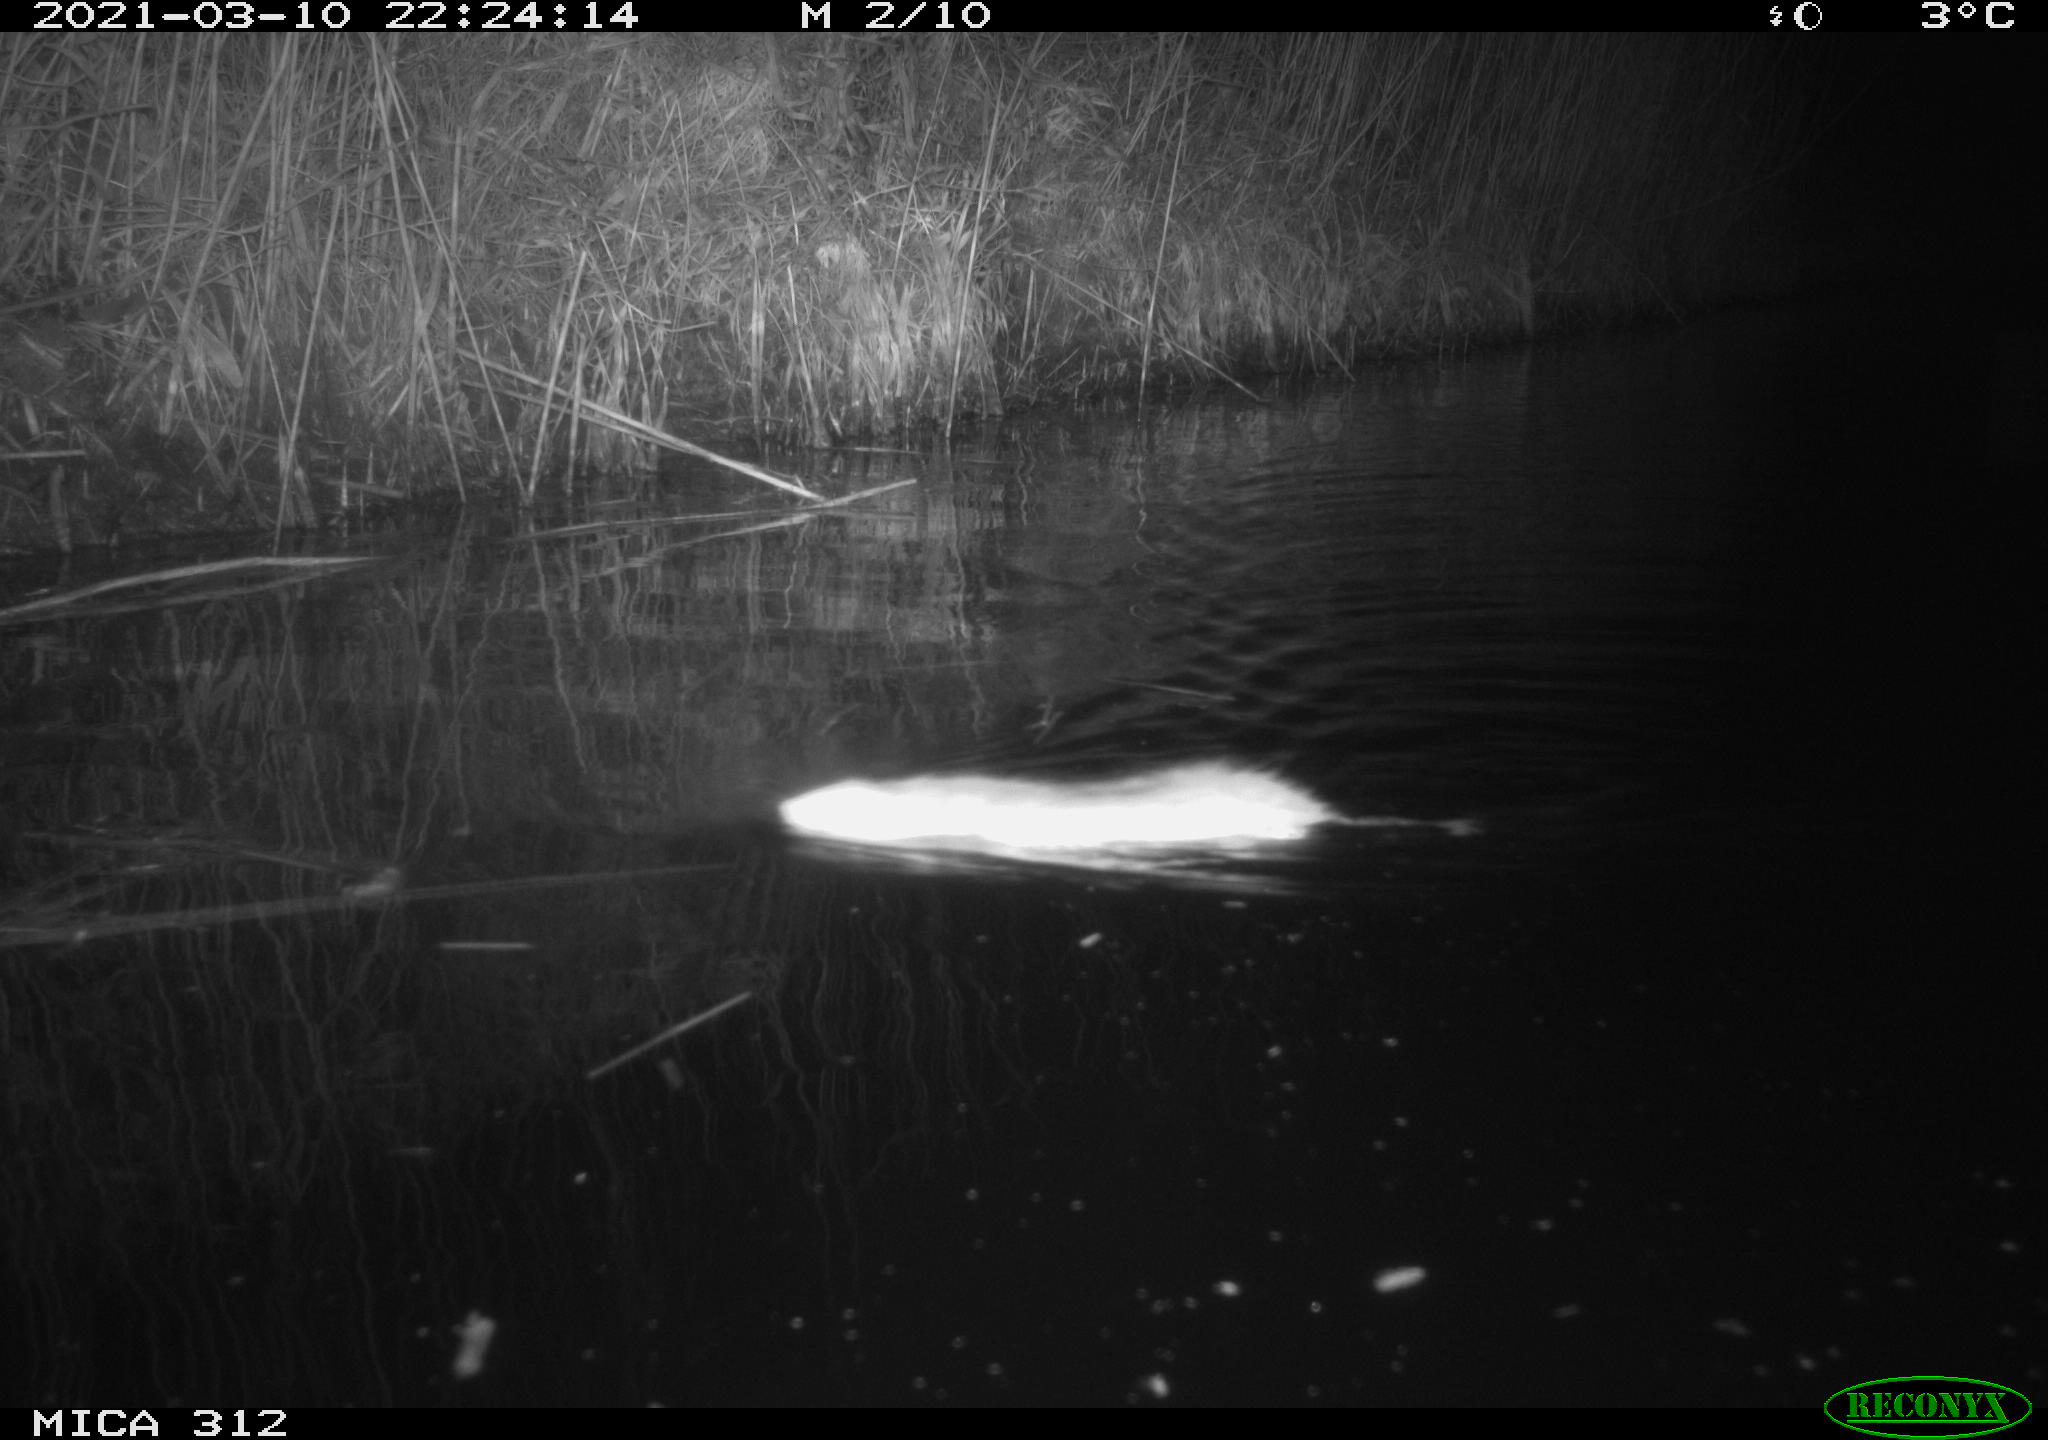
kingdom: Animalia
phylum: Chordata
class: Mammalia
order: Rodentia
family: Muridae
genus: Rattus
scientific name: Rattus norvegicus
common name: Brown rat
